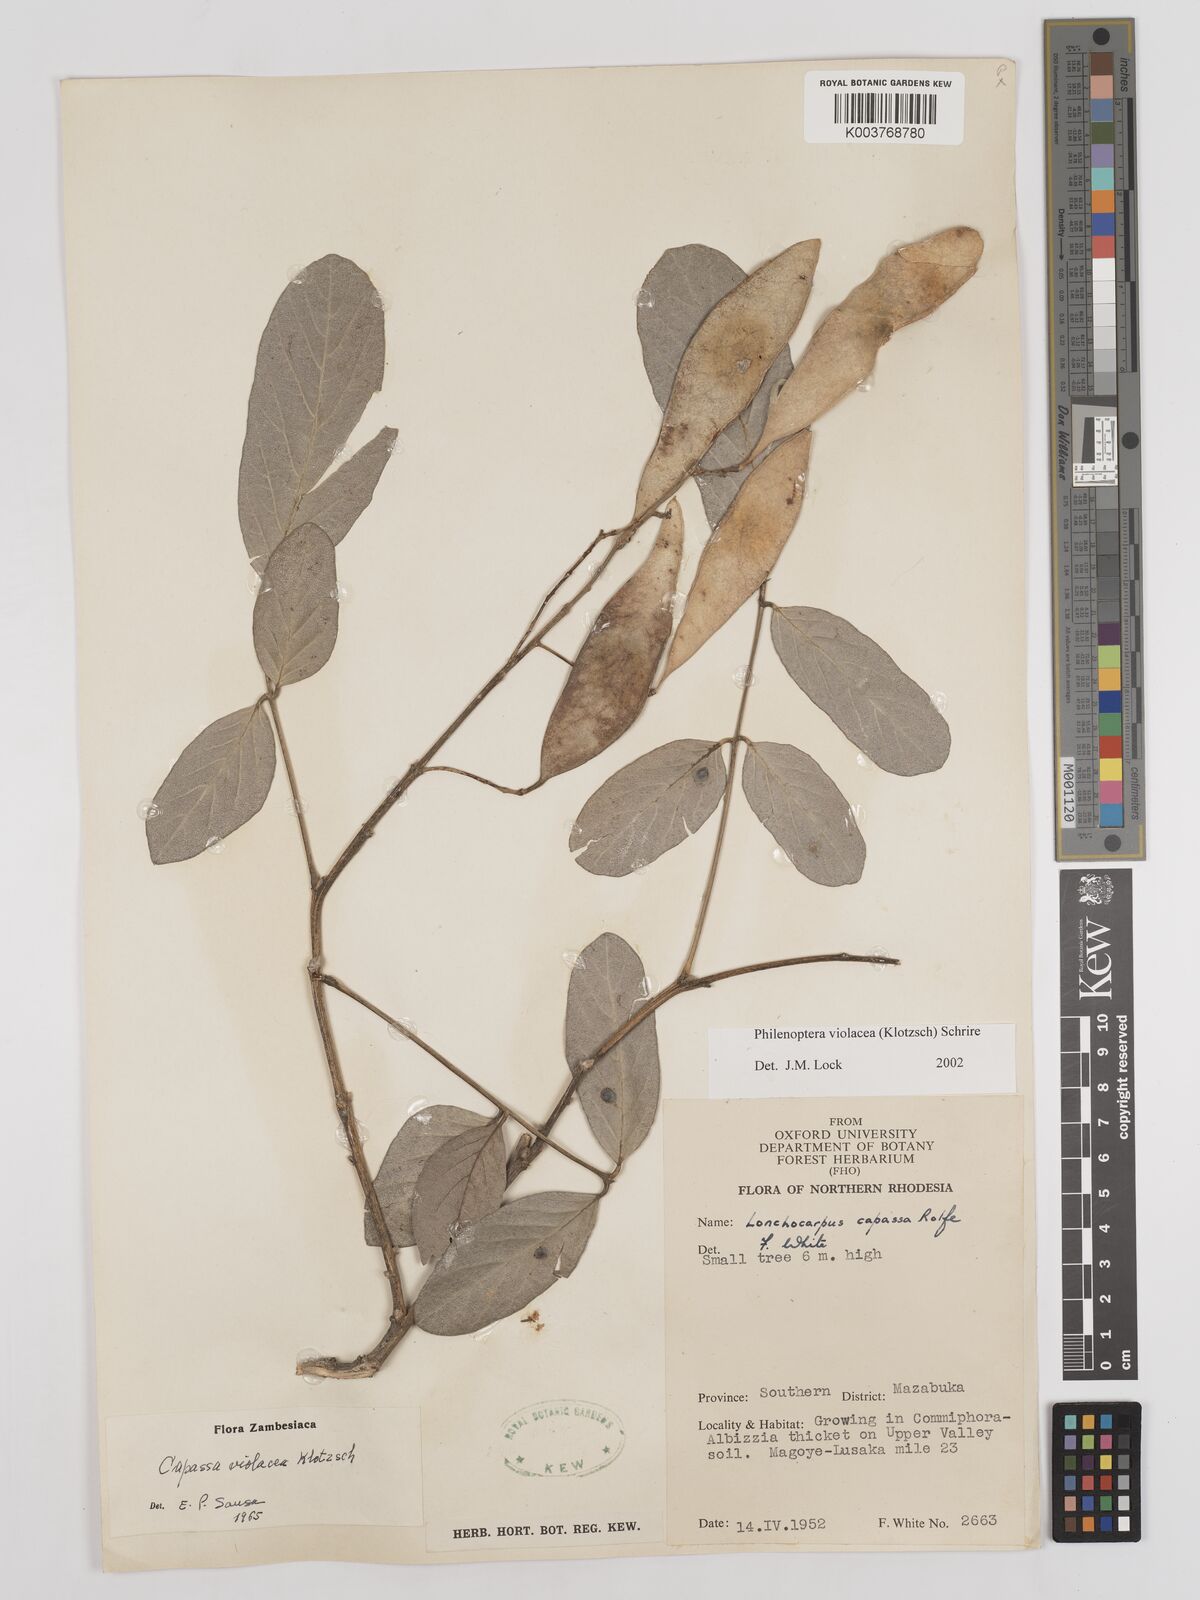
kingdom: Plantae
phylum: Tracheophyta
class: Magnoliopsida
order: Fabales
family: Fabaceae
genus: Philenoptera
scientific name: Philenoptera violacea
